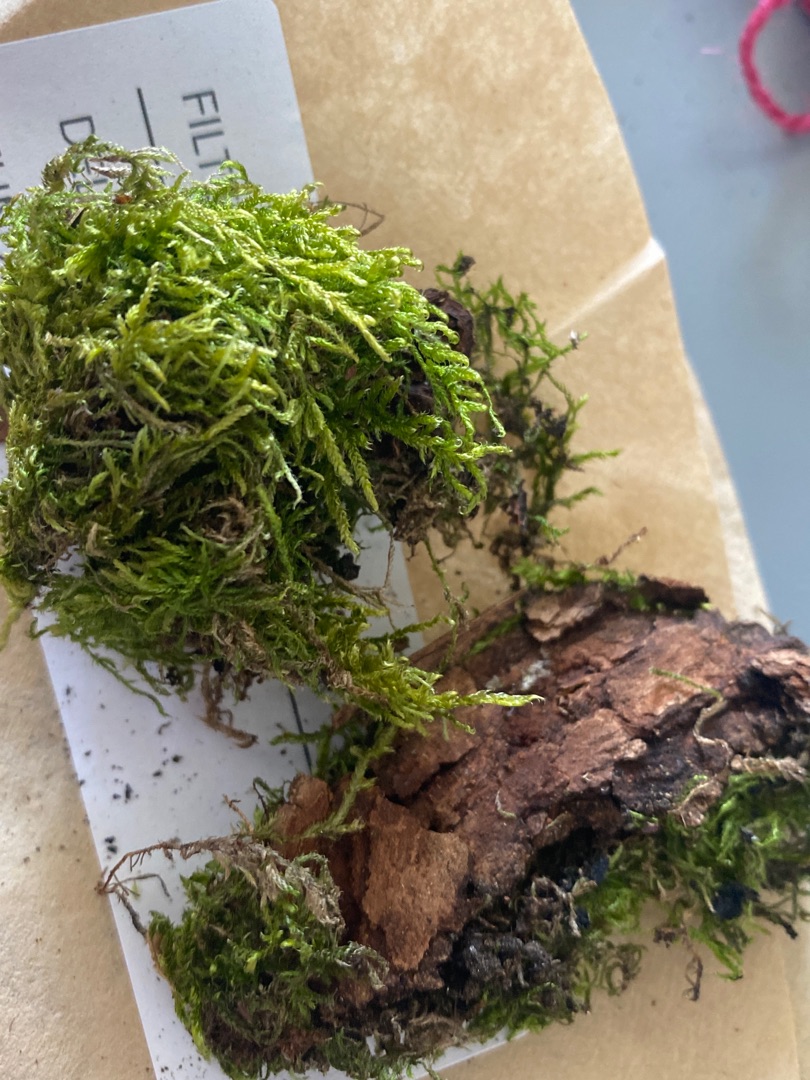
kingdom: Plantae
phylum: Bryophyta
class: Bryopsida
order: Hypnales
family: Hypnaceae
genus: Hypnum
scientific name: Hypnum cupressiforme
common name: Almindelig cypresmos
